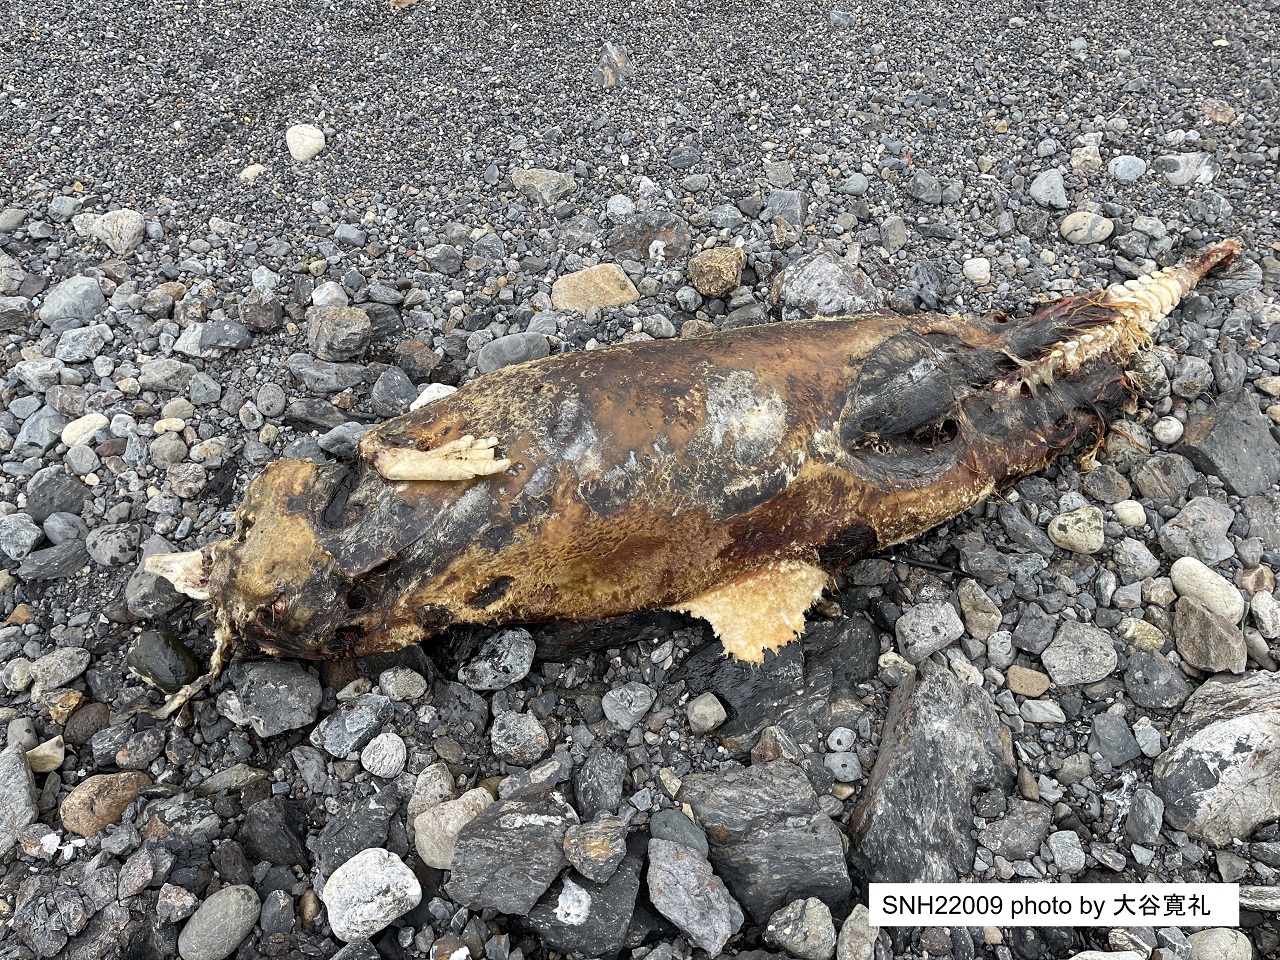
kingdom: Animalia
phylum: Chordata
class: Mammalia
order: Cetacea
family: Phocoenidae
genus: Phocoenoides
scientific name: Phocoenoides dalli
